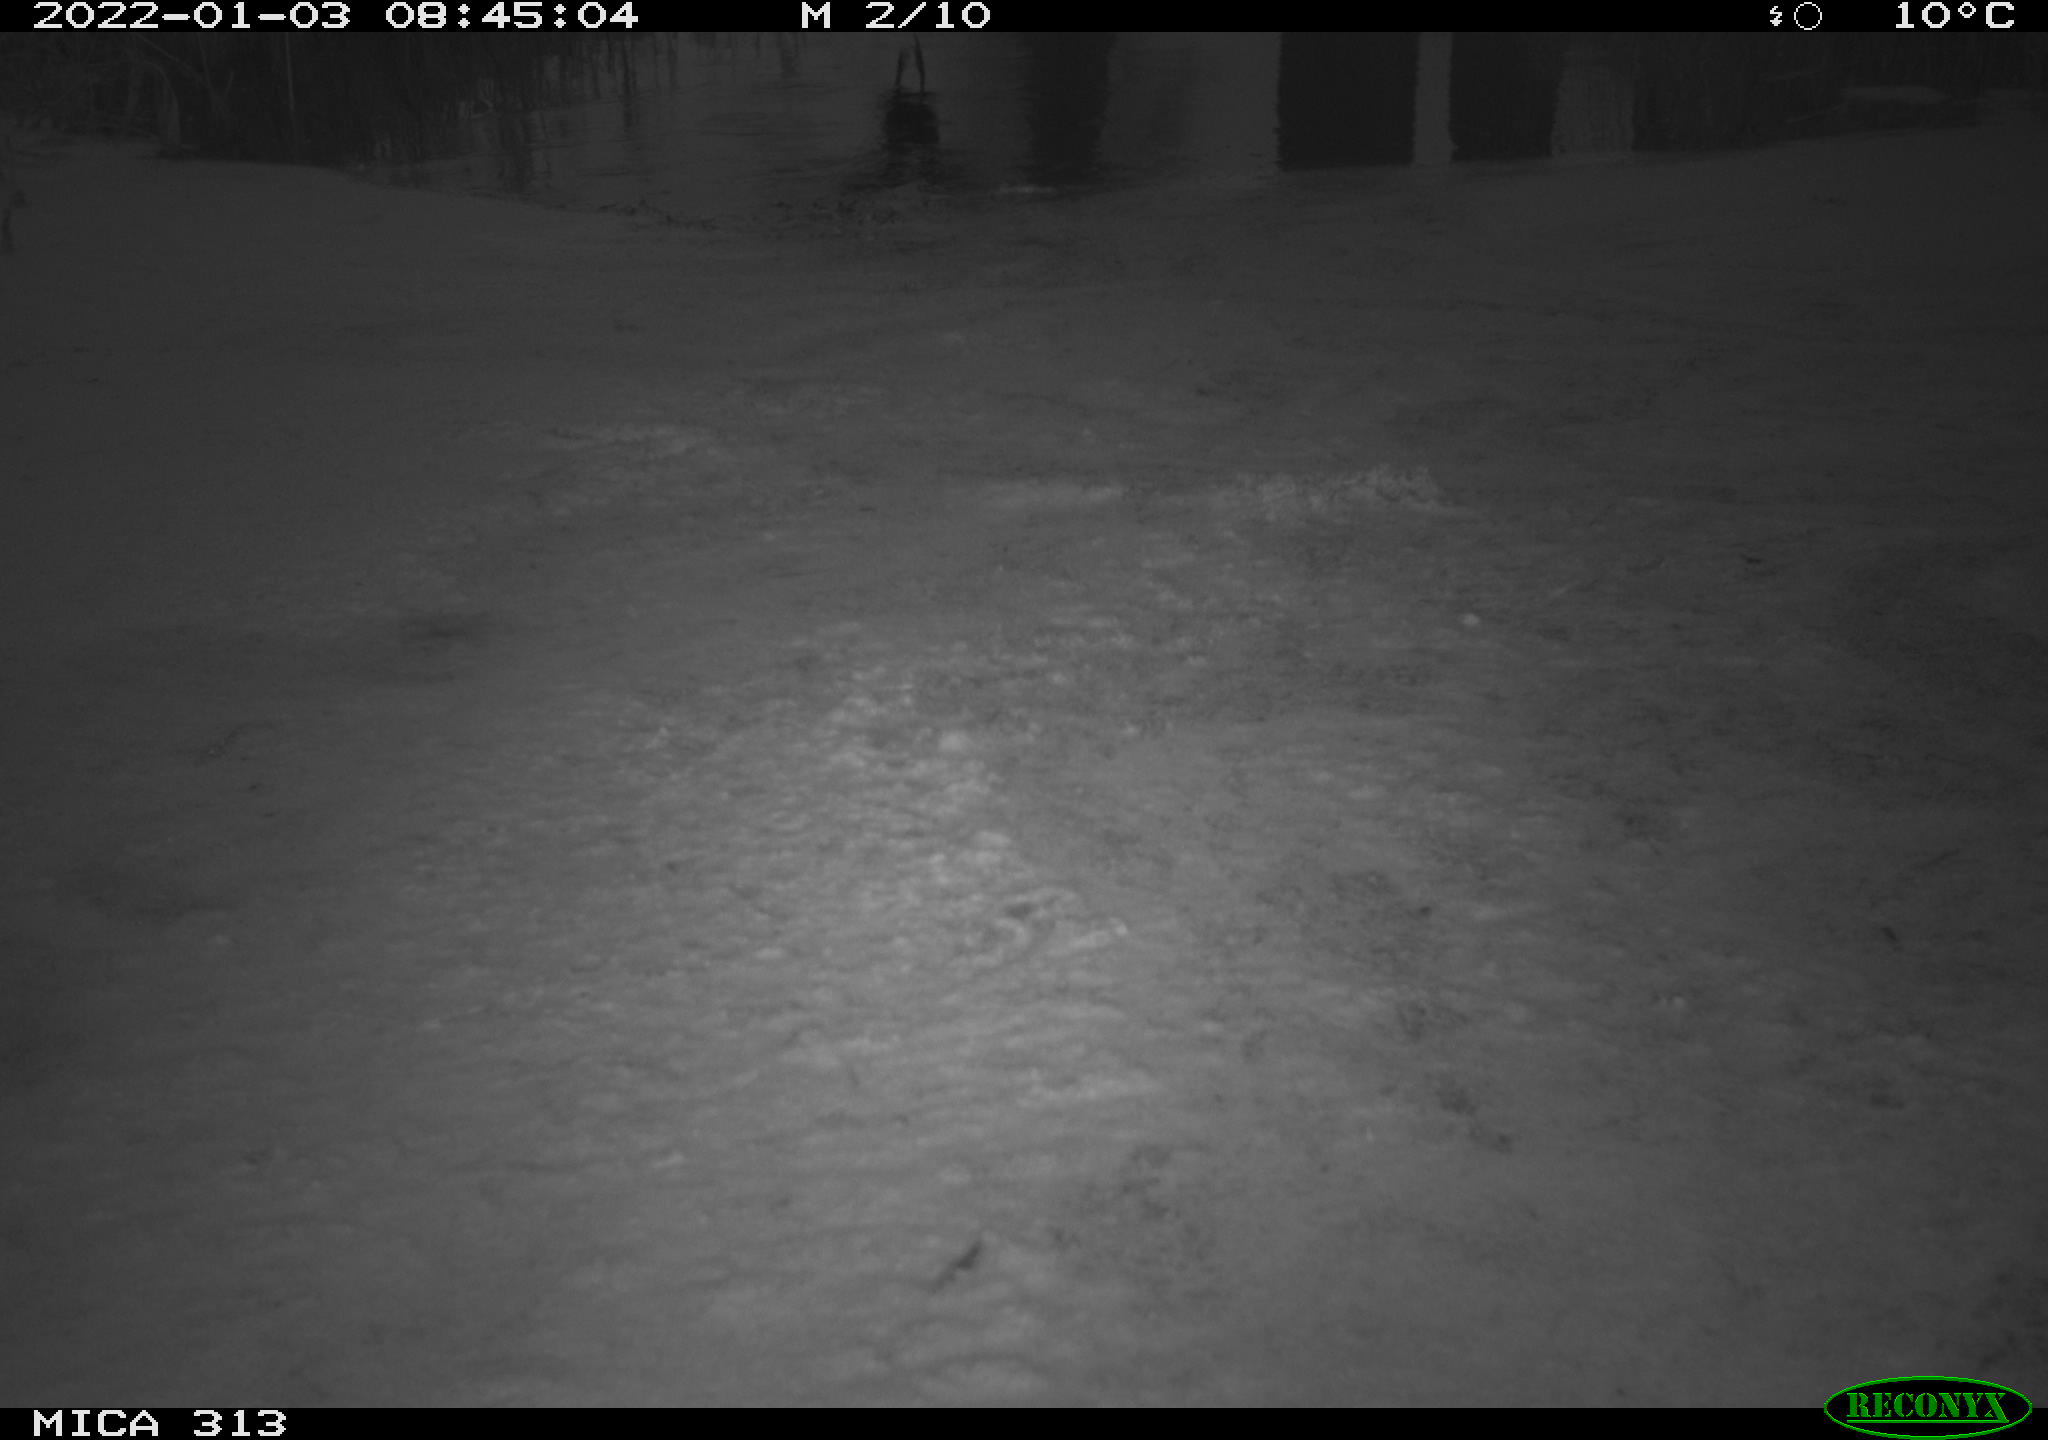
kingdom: Animalia
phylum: Chordata
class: Aves
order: Gruiformes
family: Rallidae
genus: Gallinula
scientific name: Gallinula chloropus
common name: Common moorhen
